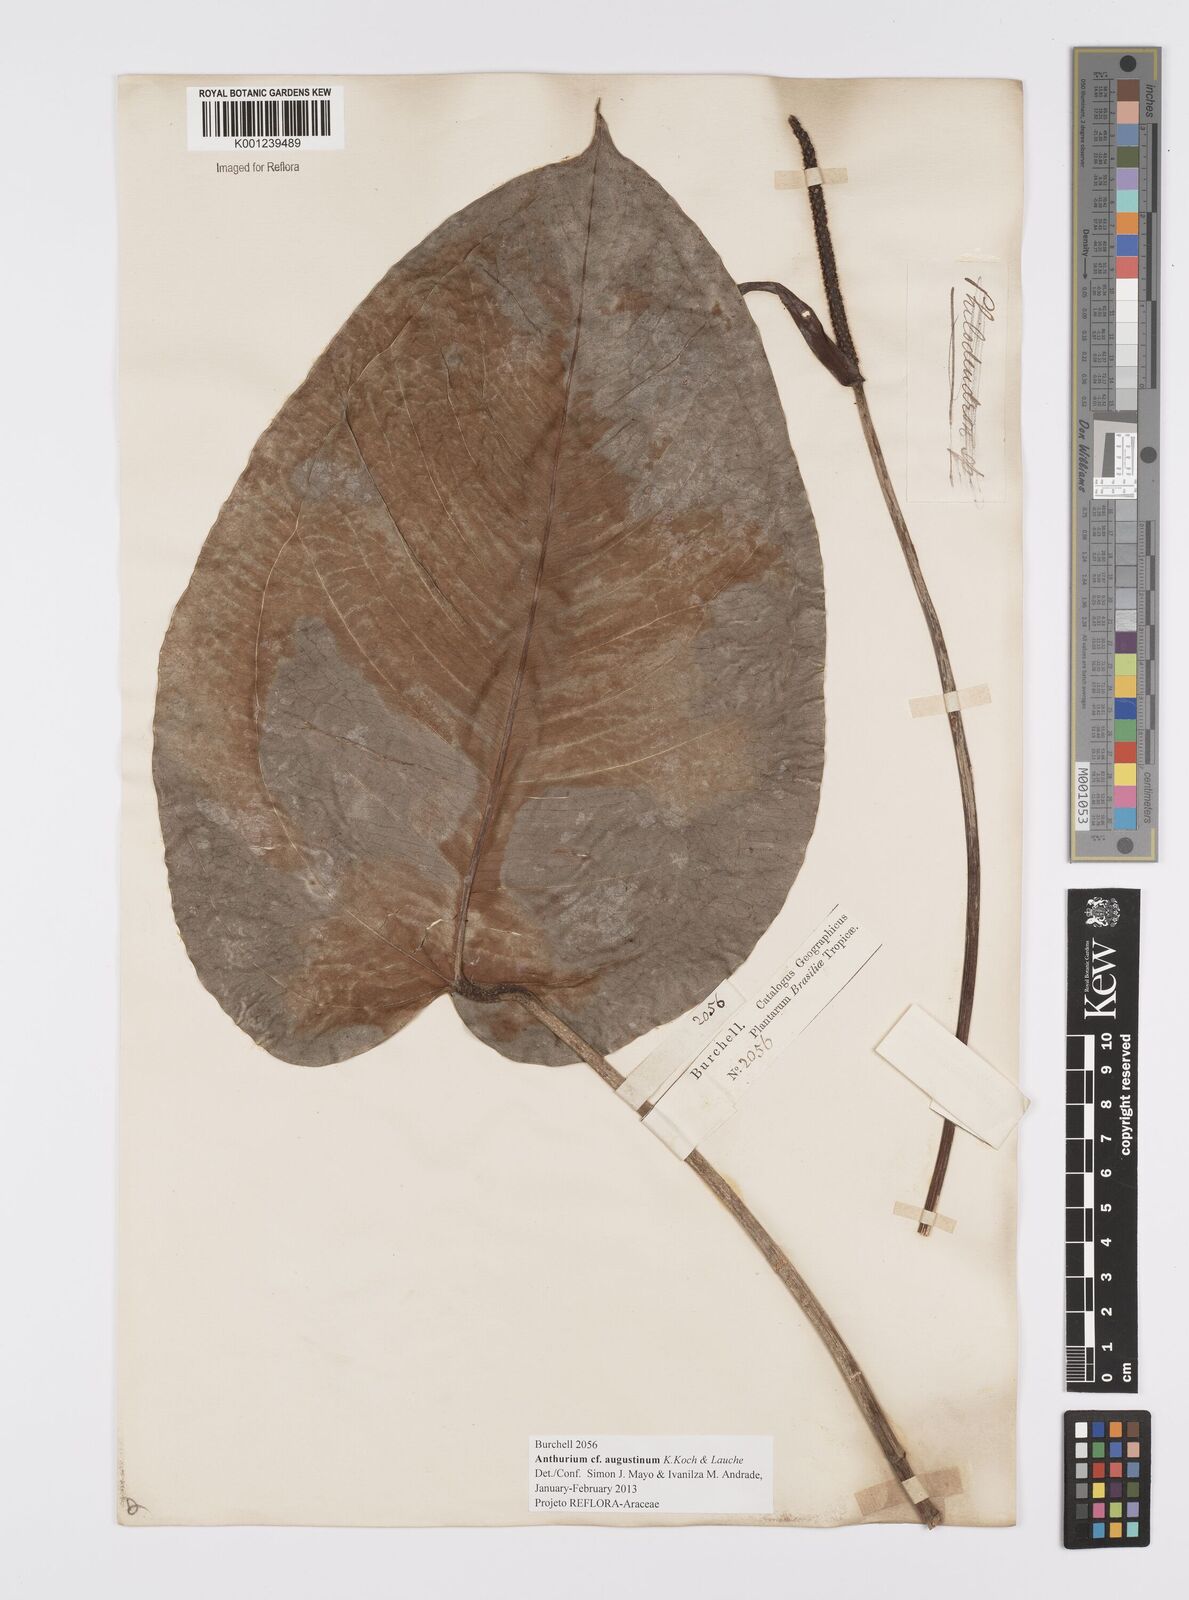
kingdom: Plantae
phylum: Tracheophyta
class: Liliopsida
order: Alismatales
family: Araceae
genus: Anthurium
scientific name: Anthurium augustinum
